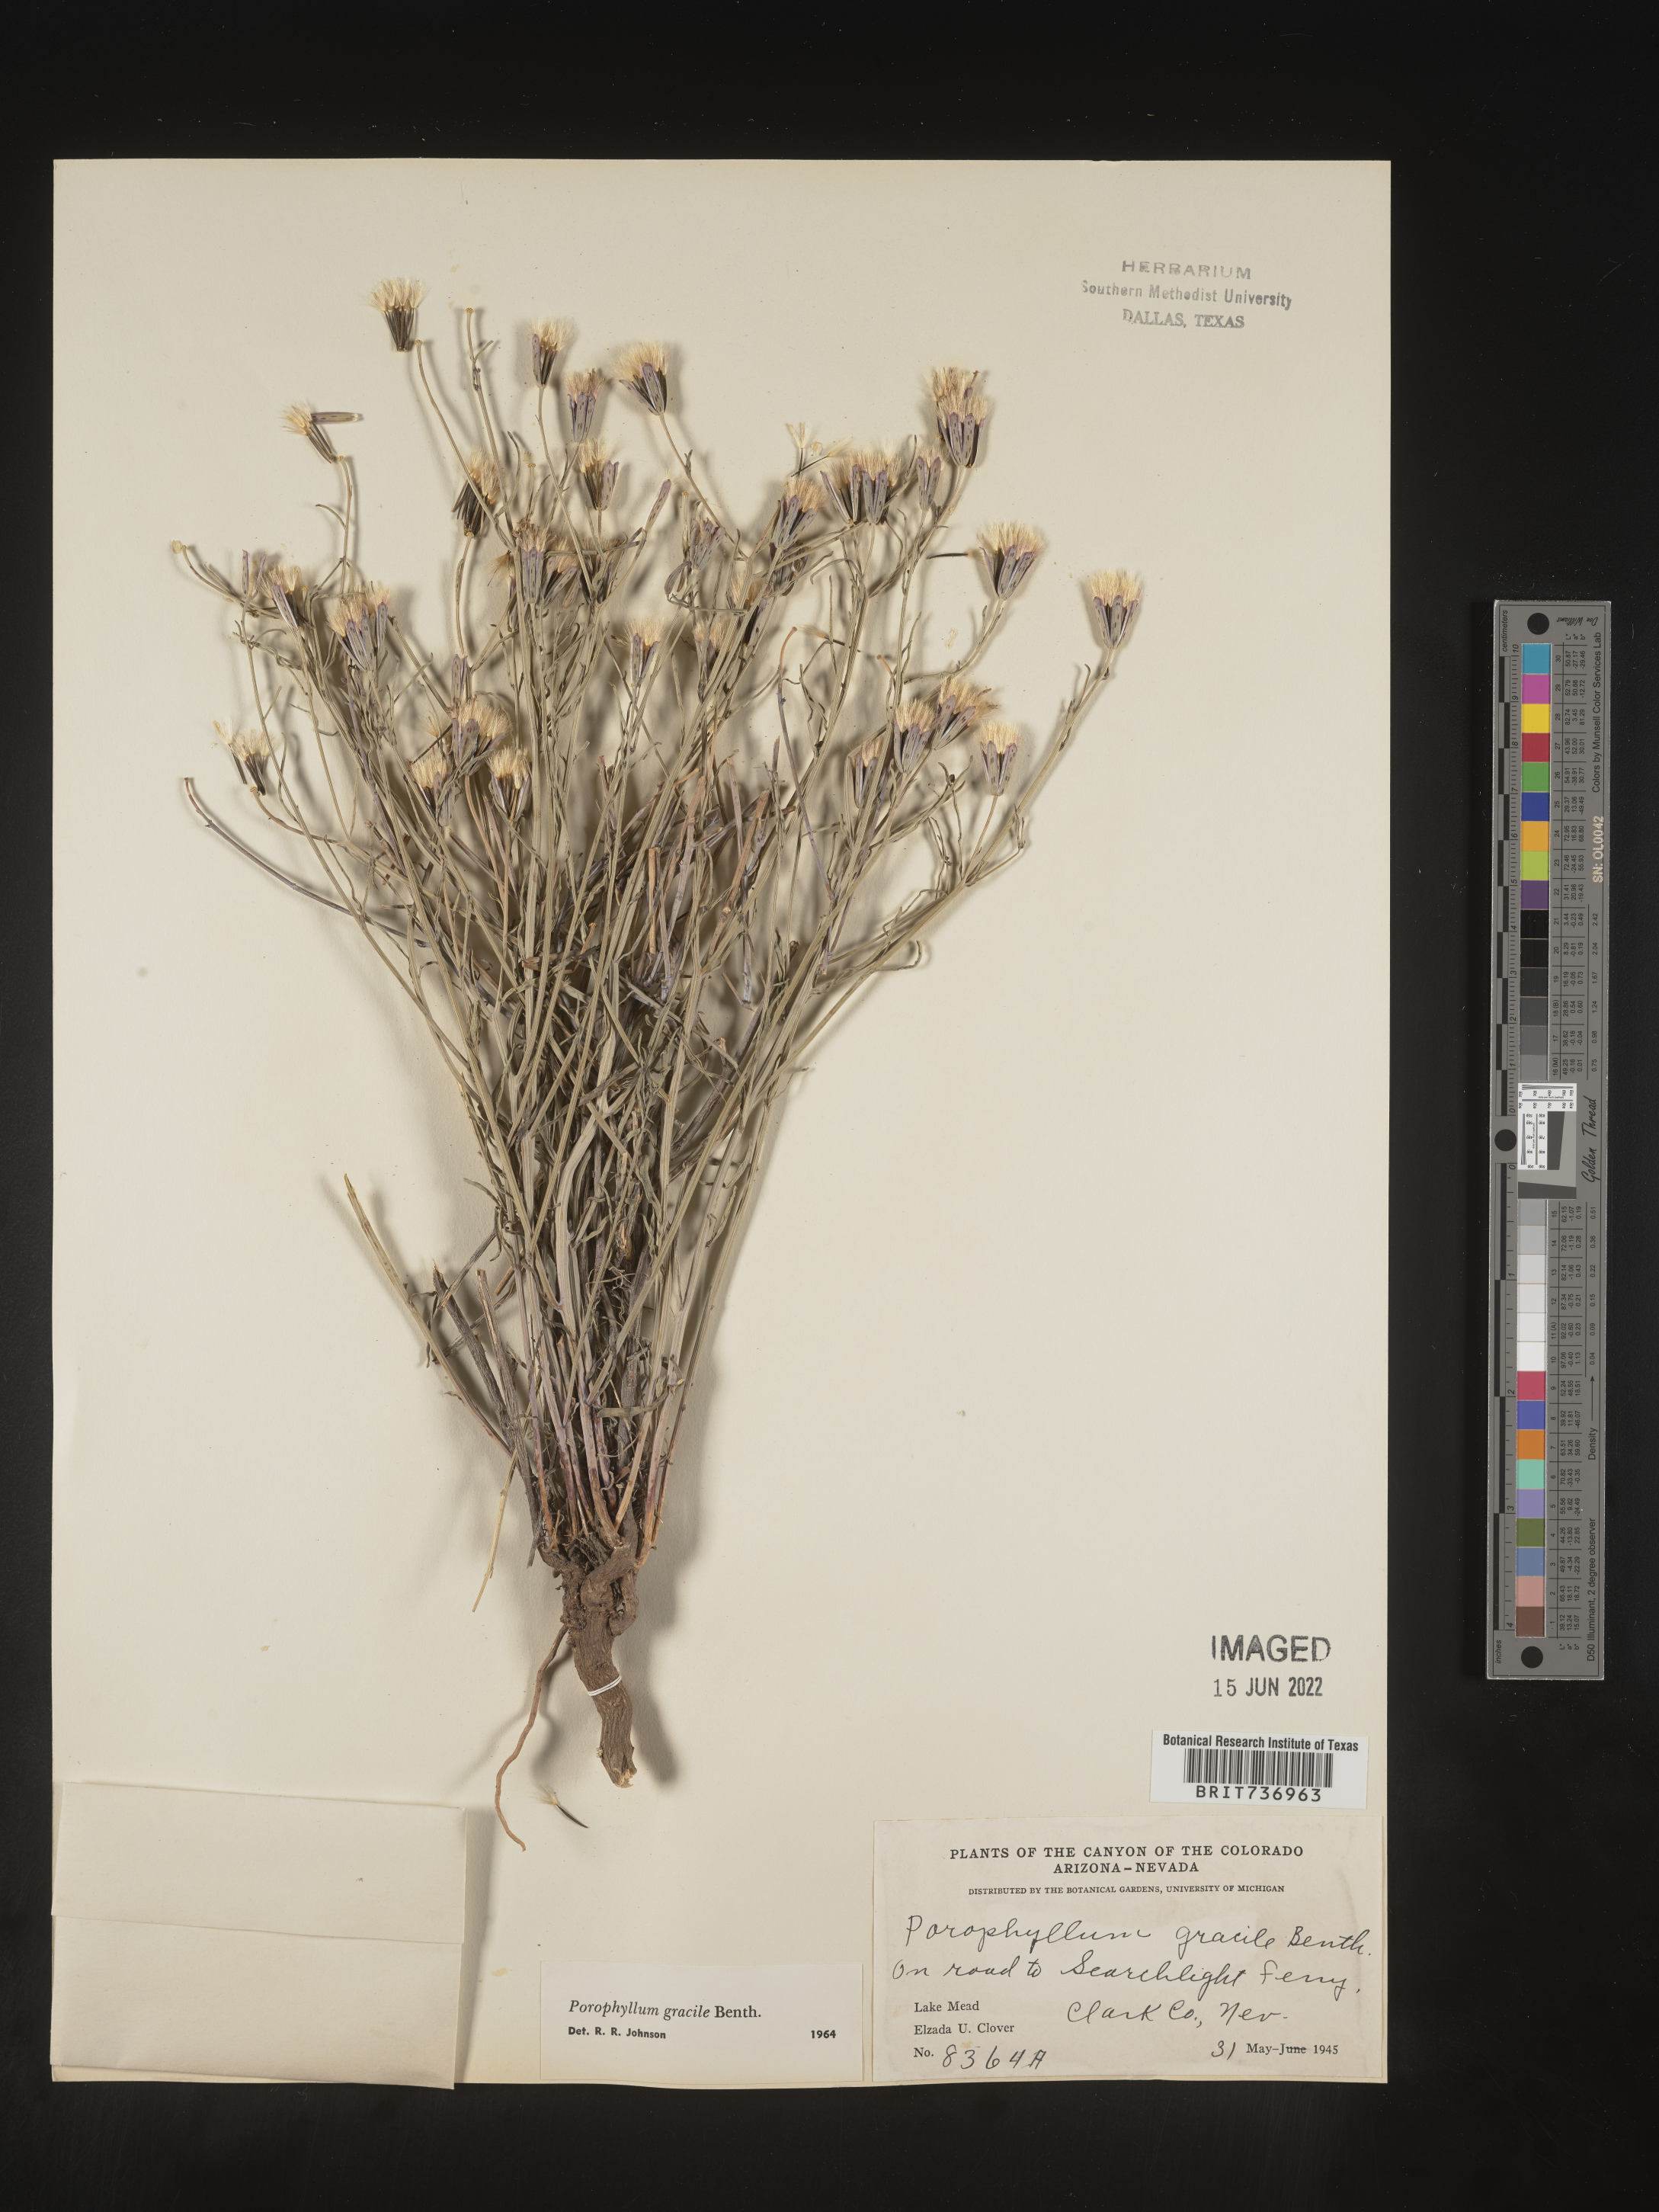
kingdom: Plantae
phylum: Tracheophyta
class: Magnoliopsida
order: Asterales
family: Asteraceae
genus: Porophyllum
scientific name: Porophyllum
